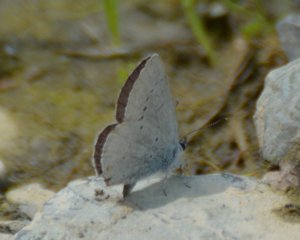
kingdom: Animalia
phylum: Arthropoda
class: Insecta
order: Lepidoptera
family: Lycaenidae
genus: Elkalyce
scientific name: Elkalyce amyntula
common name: Western Tailed-Blue
